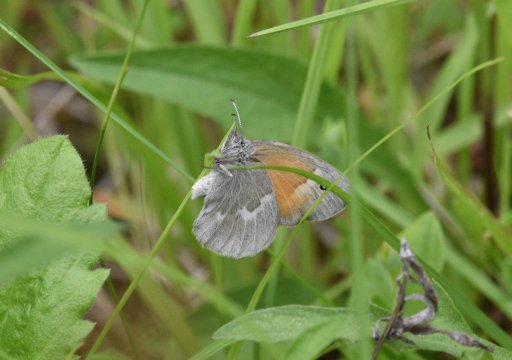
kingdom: Animalia
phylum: Arthropoda
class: Insecta
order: Lepidoptera
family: Nymphalidae
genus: Coenonympha
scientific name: Coenonympha tullia
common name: Large Heath
